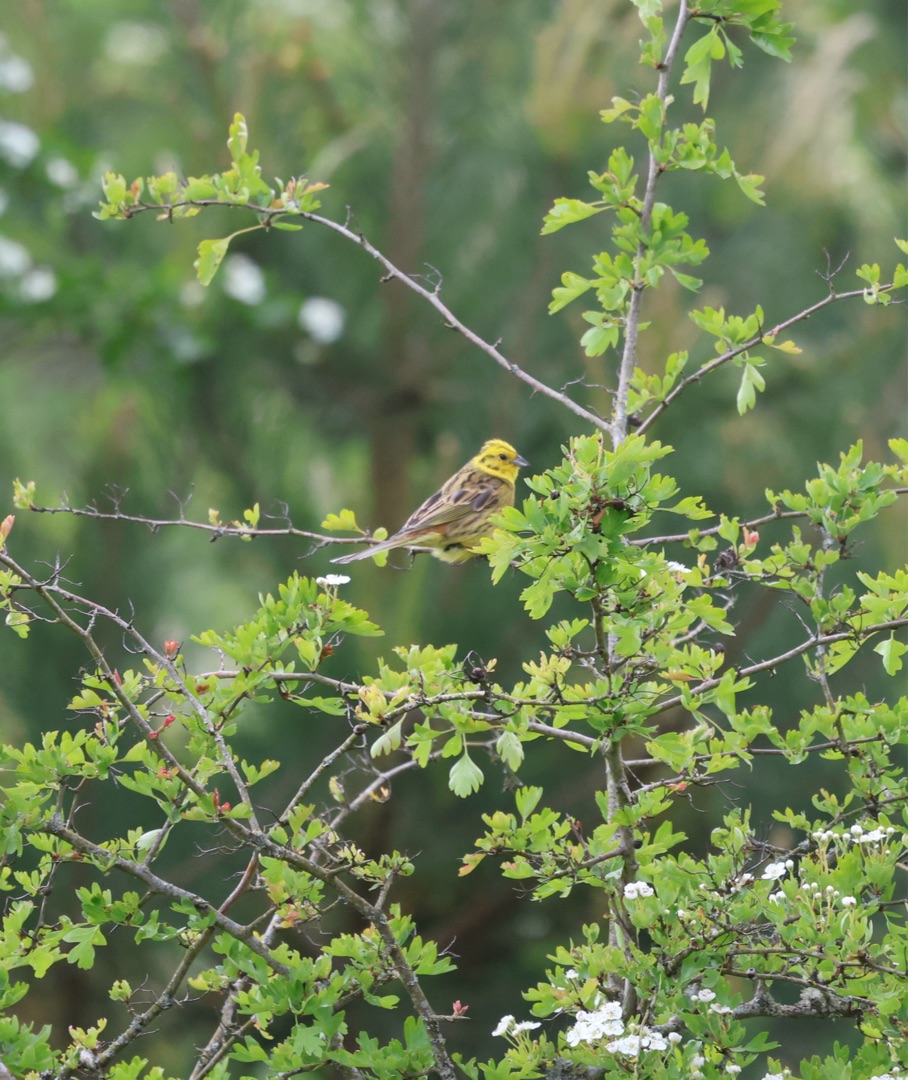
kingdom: Animalia
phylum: Chordata
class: Aves
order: Passeriformes
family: Emberizidae
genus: Emberiza
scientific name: Emberiza citrinella
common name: Gulspurv
